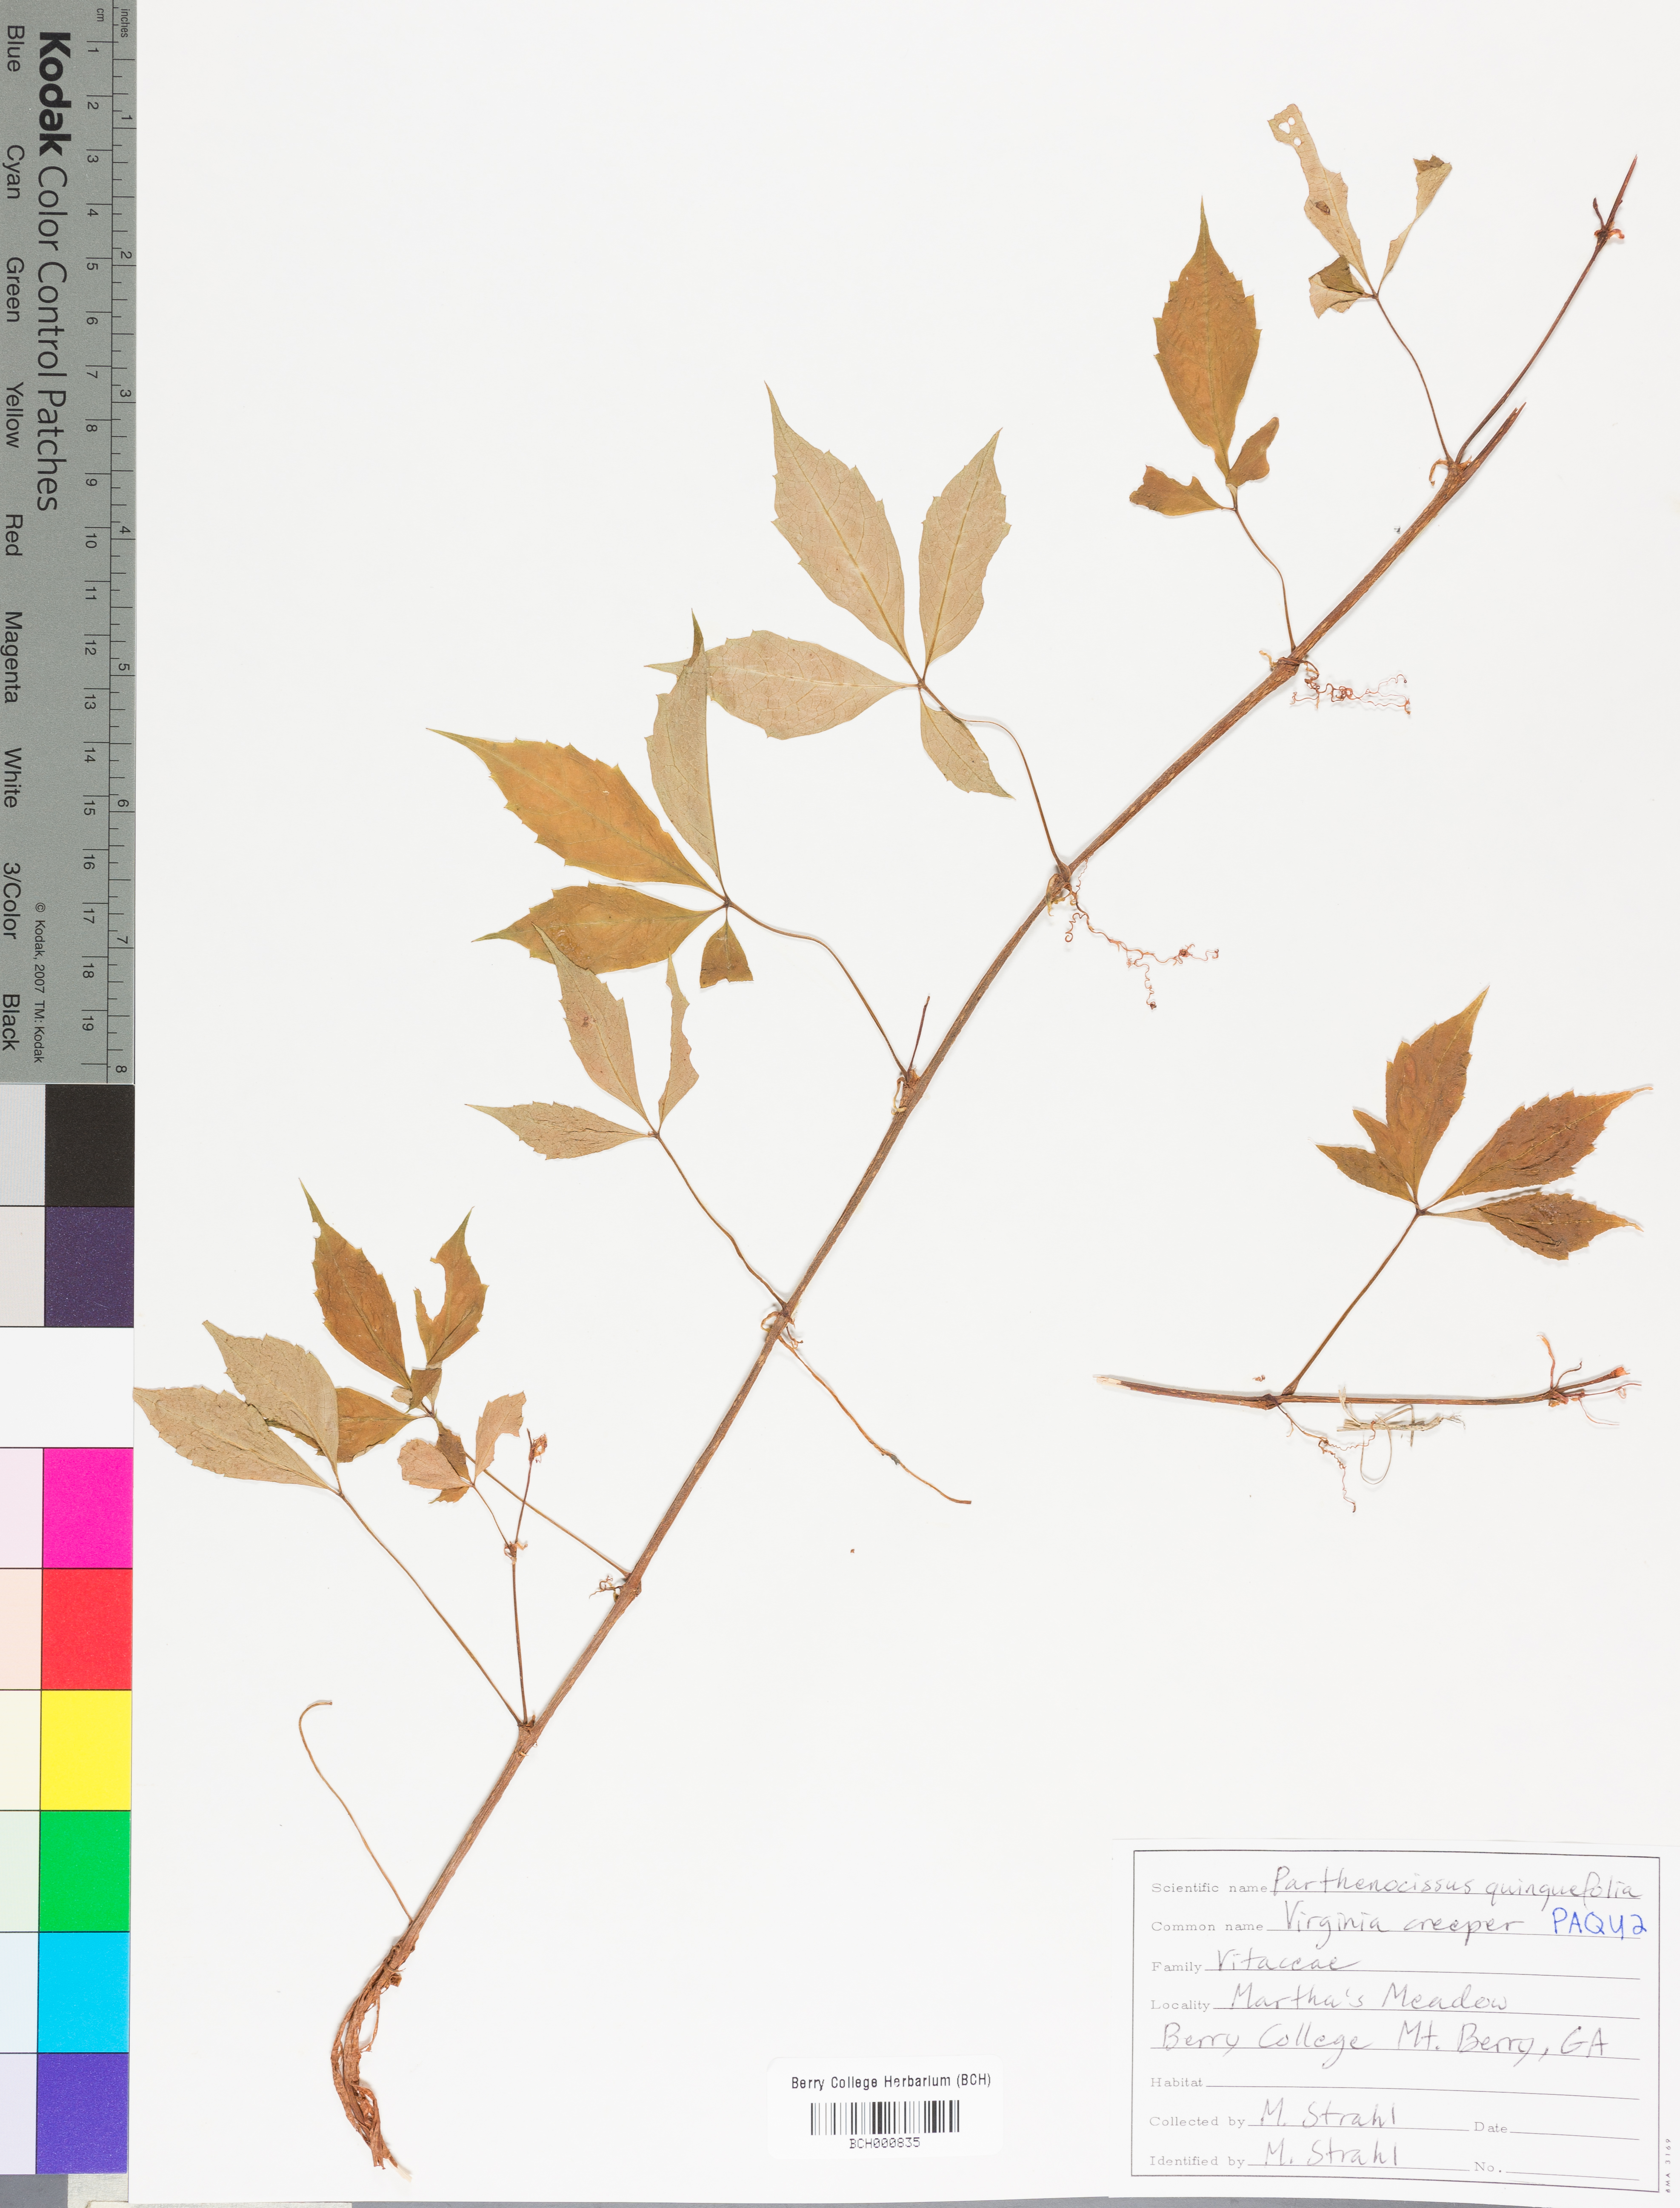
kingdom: Plantae
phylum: Tracheophyta
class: Magnoliopsida
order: Vitales
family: Vitaceae
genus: Parthenocissus
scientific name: Parthenocissus quinquefolia
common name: Virginia-creeper
